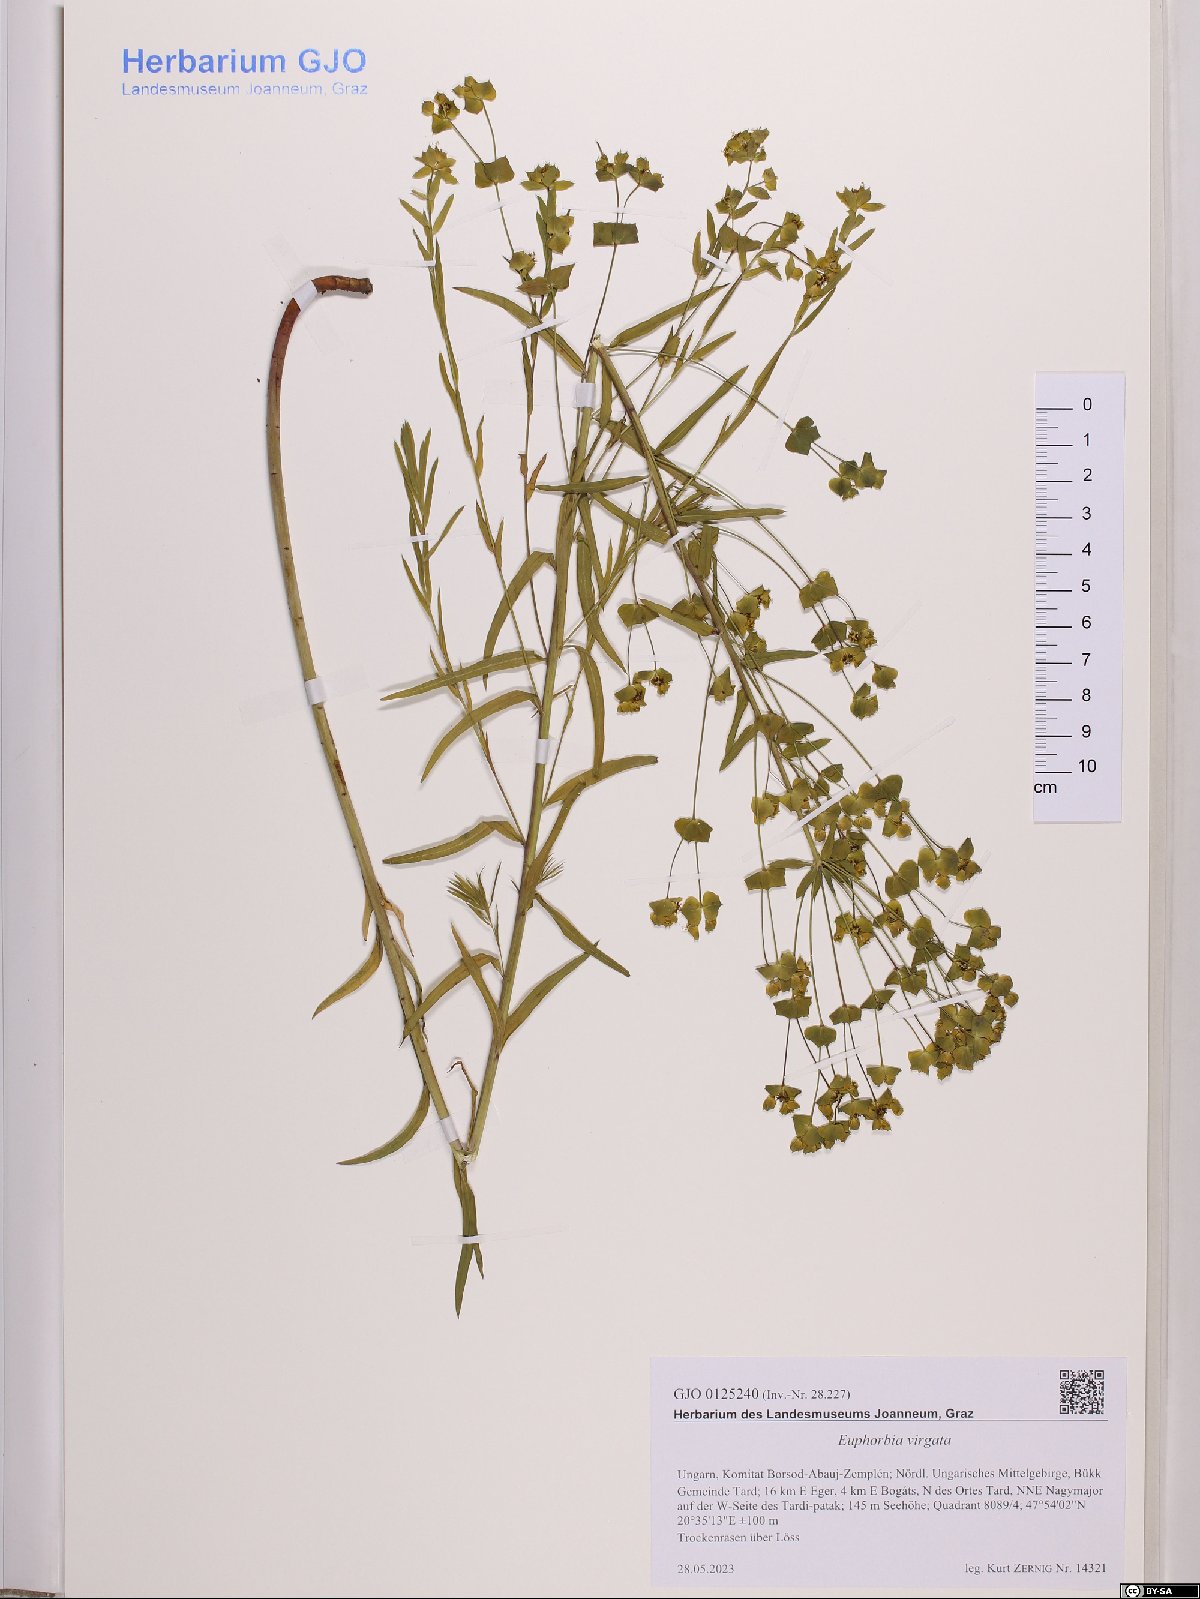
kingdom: Plantae
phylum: Tracheophyta
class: Magnoliopsida
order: Malpighiales
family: Euphorbiaceae
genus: Euphorbia
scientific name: Euphorbia virgata
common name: Leafy spurge
